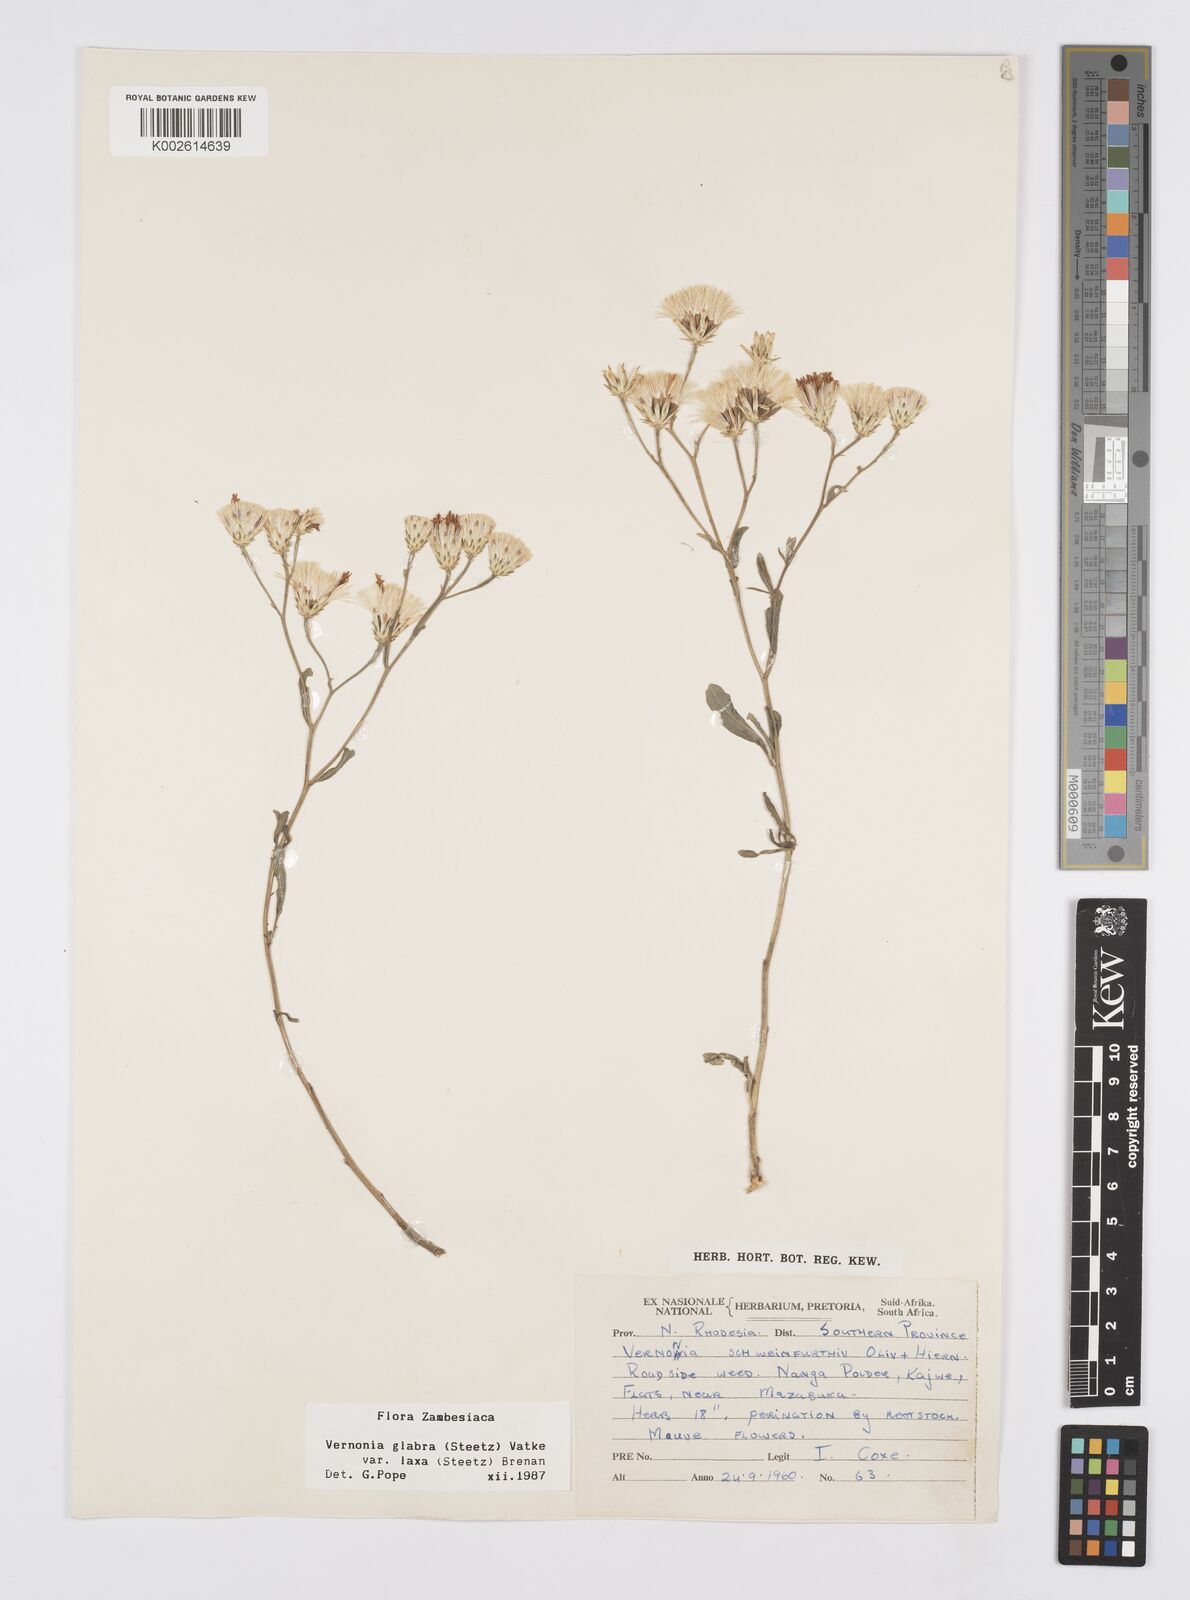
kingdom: Plantae
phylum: Tracheophyta
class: Magnoliopsida
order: Asterales
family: Asteraceae
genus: Linzia
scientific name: Linzia glabra
